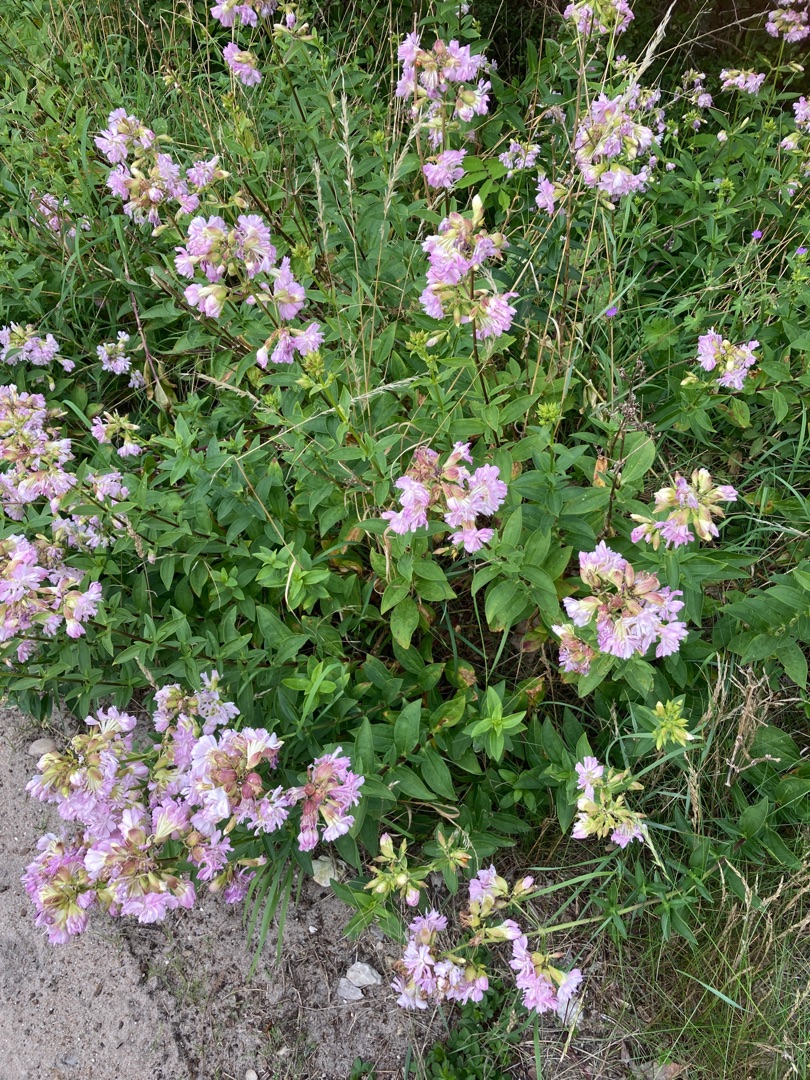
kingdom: Plantae
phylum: Tracheophyta
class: Magnoliopsida
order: Caryophyllales
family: Caryophyllaceae
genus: Saponaria
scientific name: Saponaria officinalis
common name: Sæbeurt
